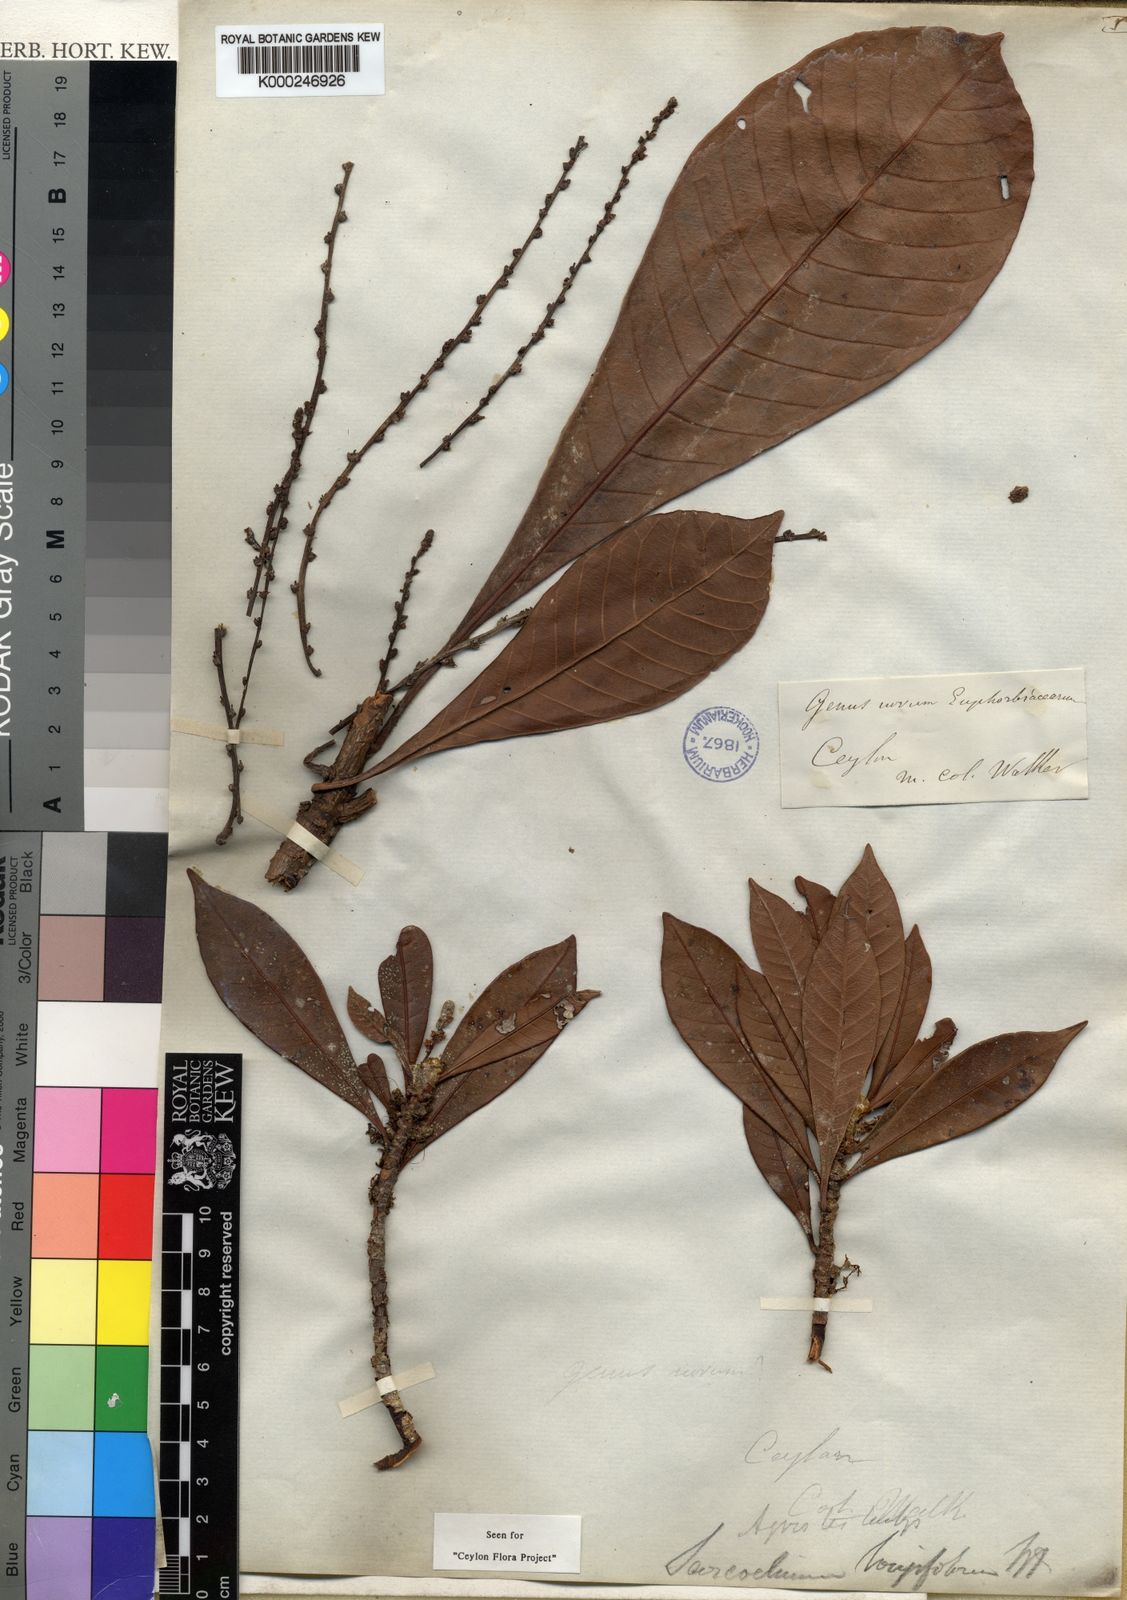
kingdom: Plantae
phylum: Tracheophyta
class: Magnoliopsida
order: Malpighiales
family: Euphorbiaceae
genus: Agrostistachys
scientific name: Agrostistachys borneensis
